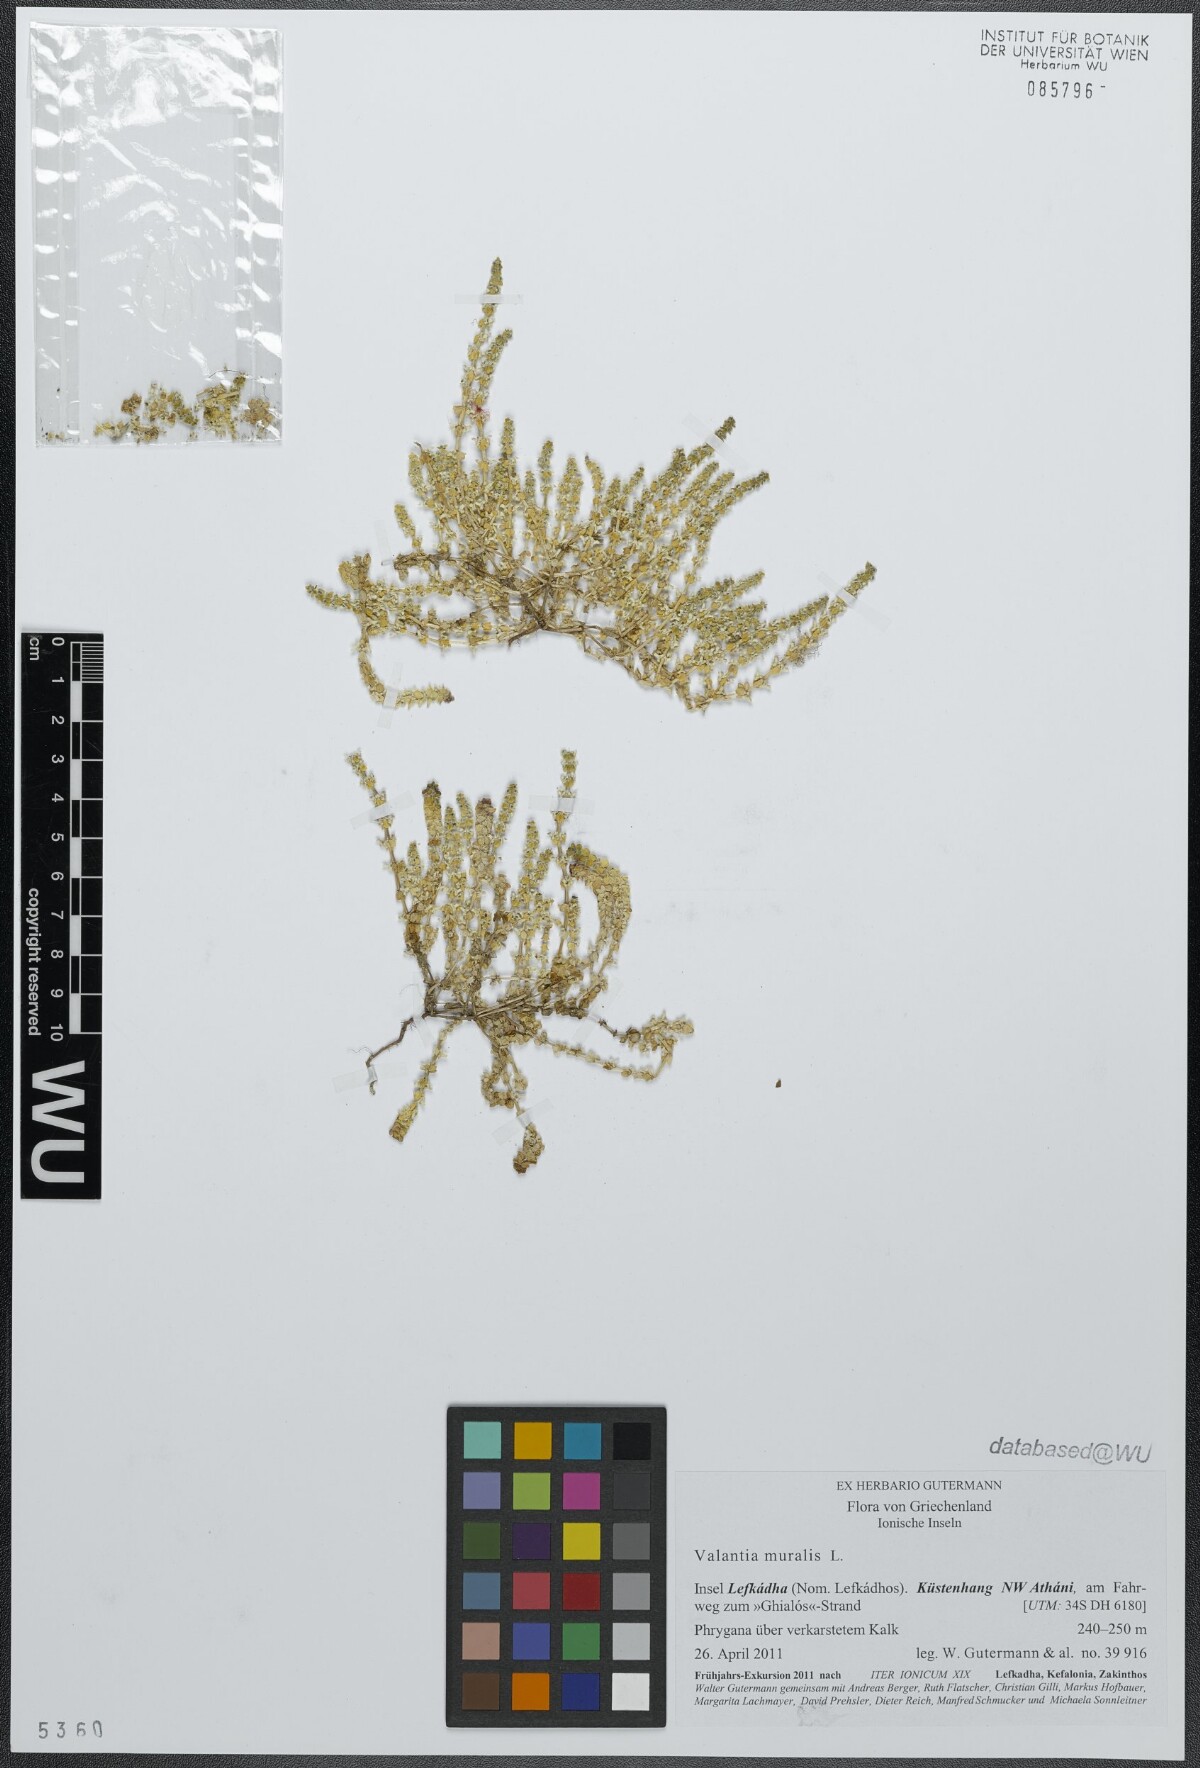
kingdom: Plantae
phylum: Tracheophyta
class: Magnoliopsida
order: Gentianales
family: Rubiaceae
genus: Valantia
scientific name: Valantia muralis
